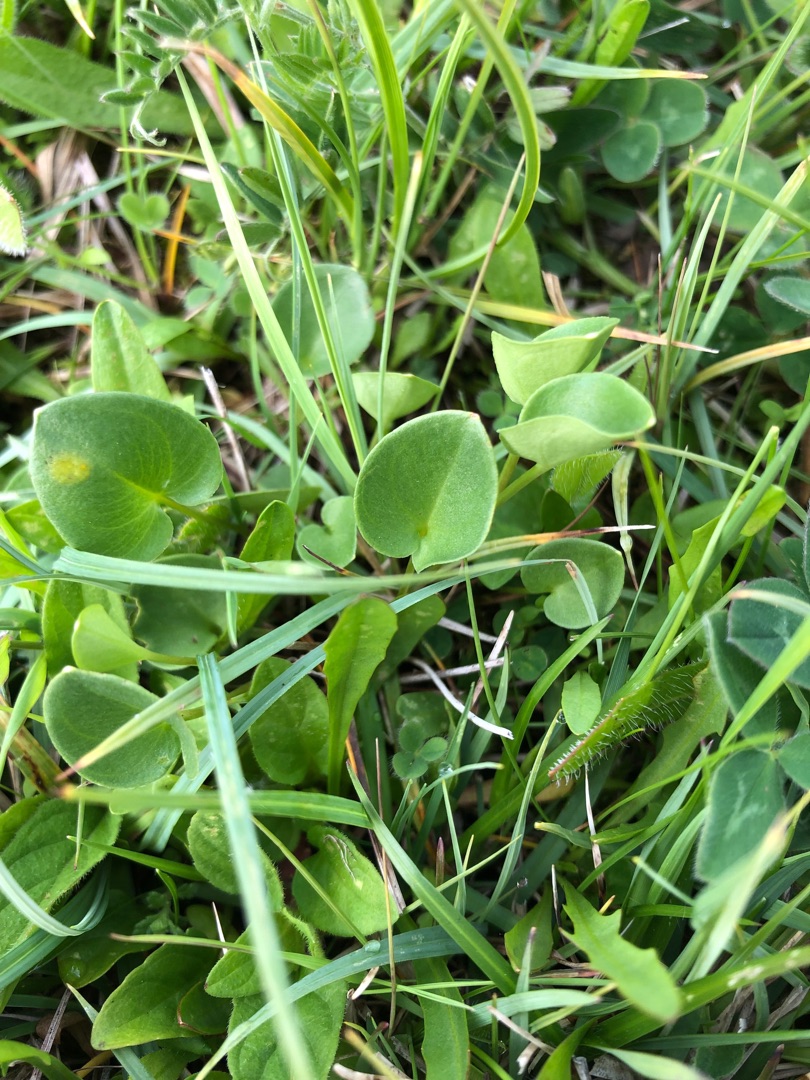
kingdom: Plantae
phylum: Tracheophyta
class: Magnoliopsida
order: Celastrales
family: Parnassiaceae
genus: Parnassia
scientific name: Parnassia palustris
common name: Leverurt
